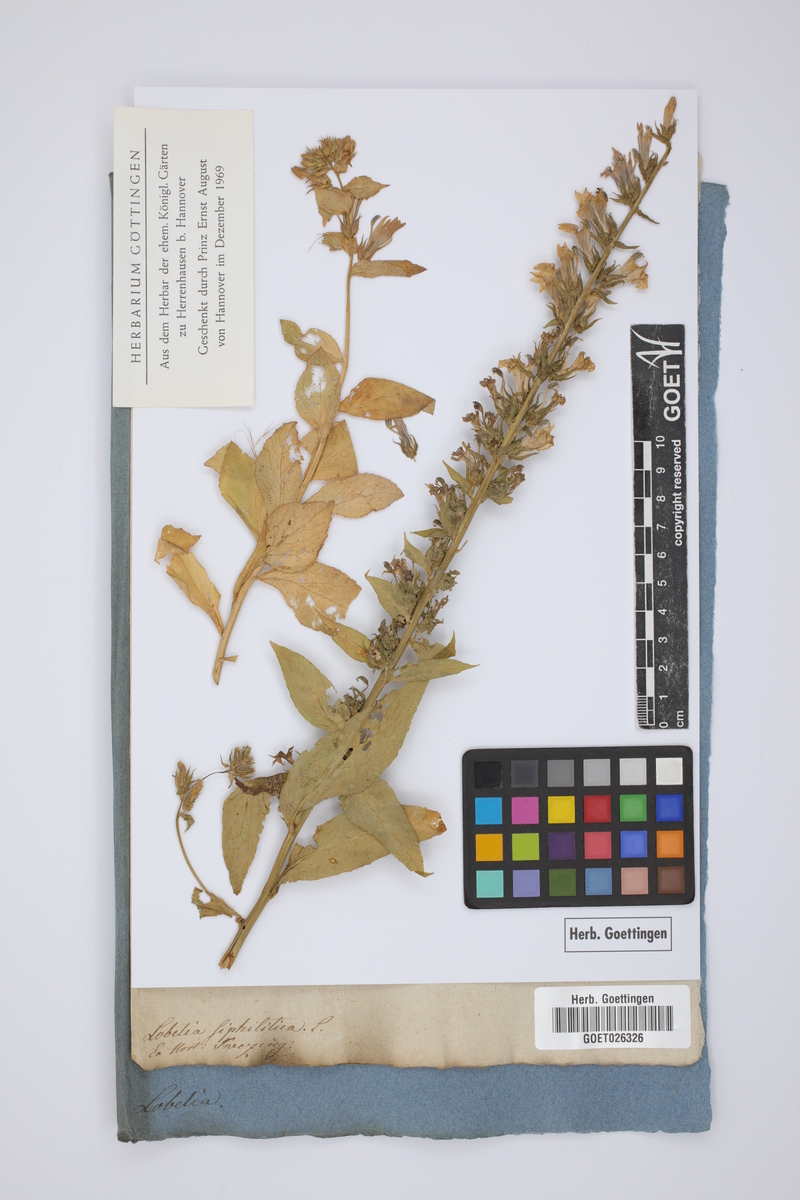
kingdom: Plantae
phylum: Tracheophyta
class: Magnoliopsida
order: Asterales
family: Campanulaceae
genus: Lobelia
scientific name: Lobelia siphilitica
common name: Great lobelia
